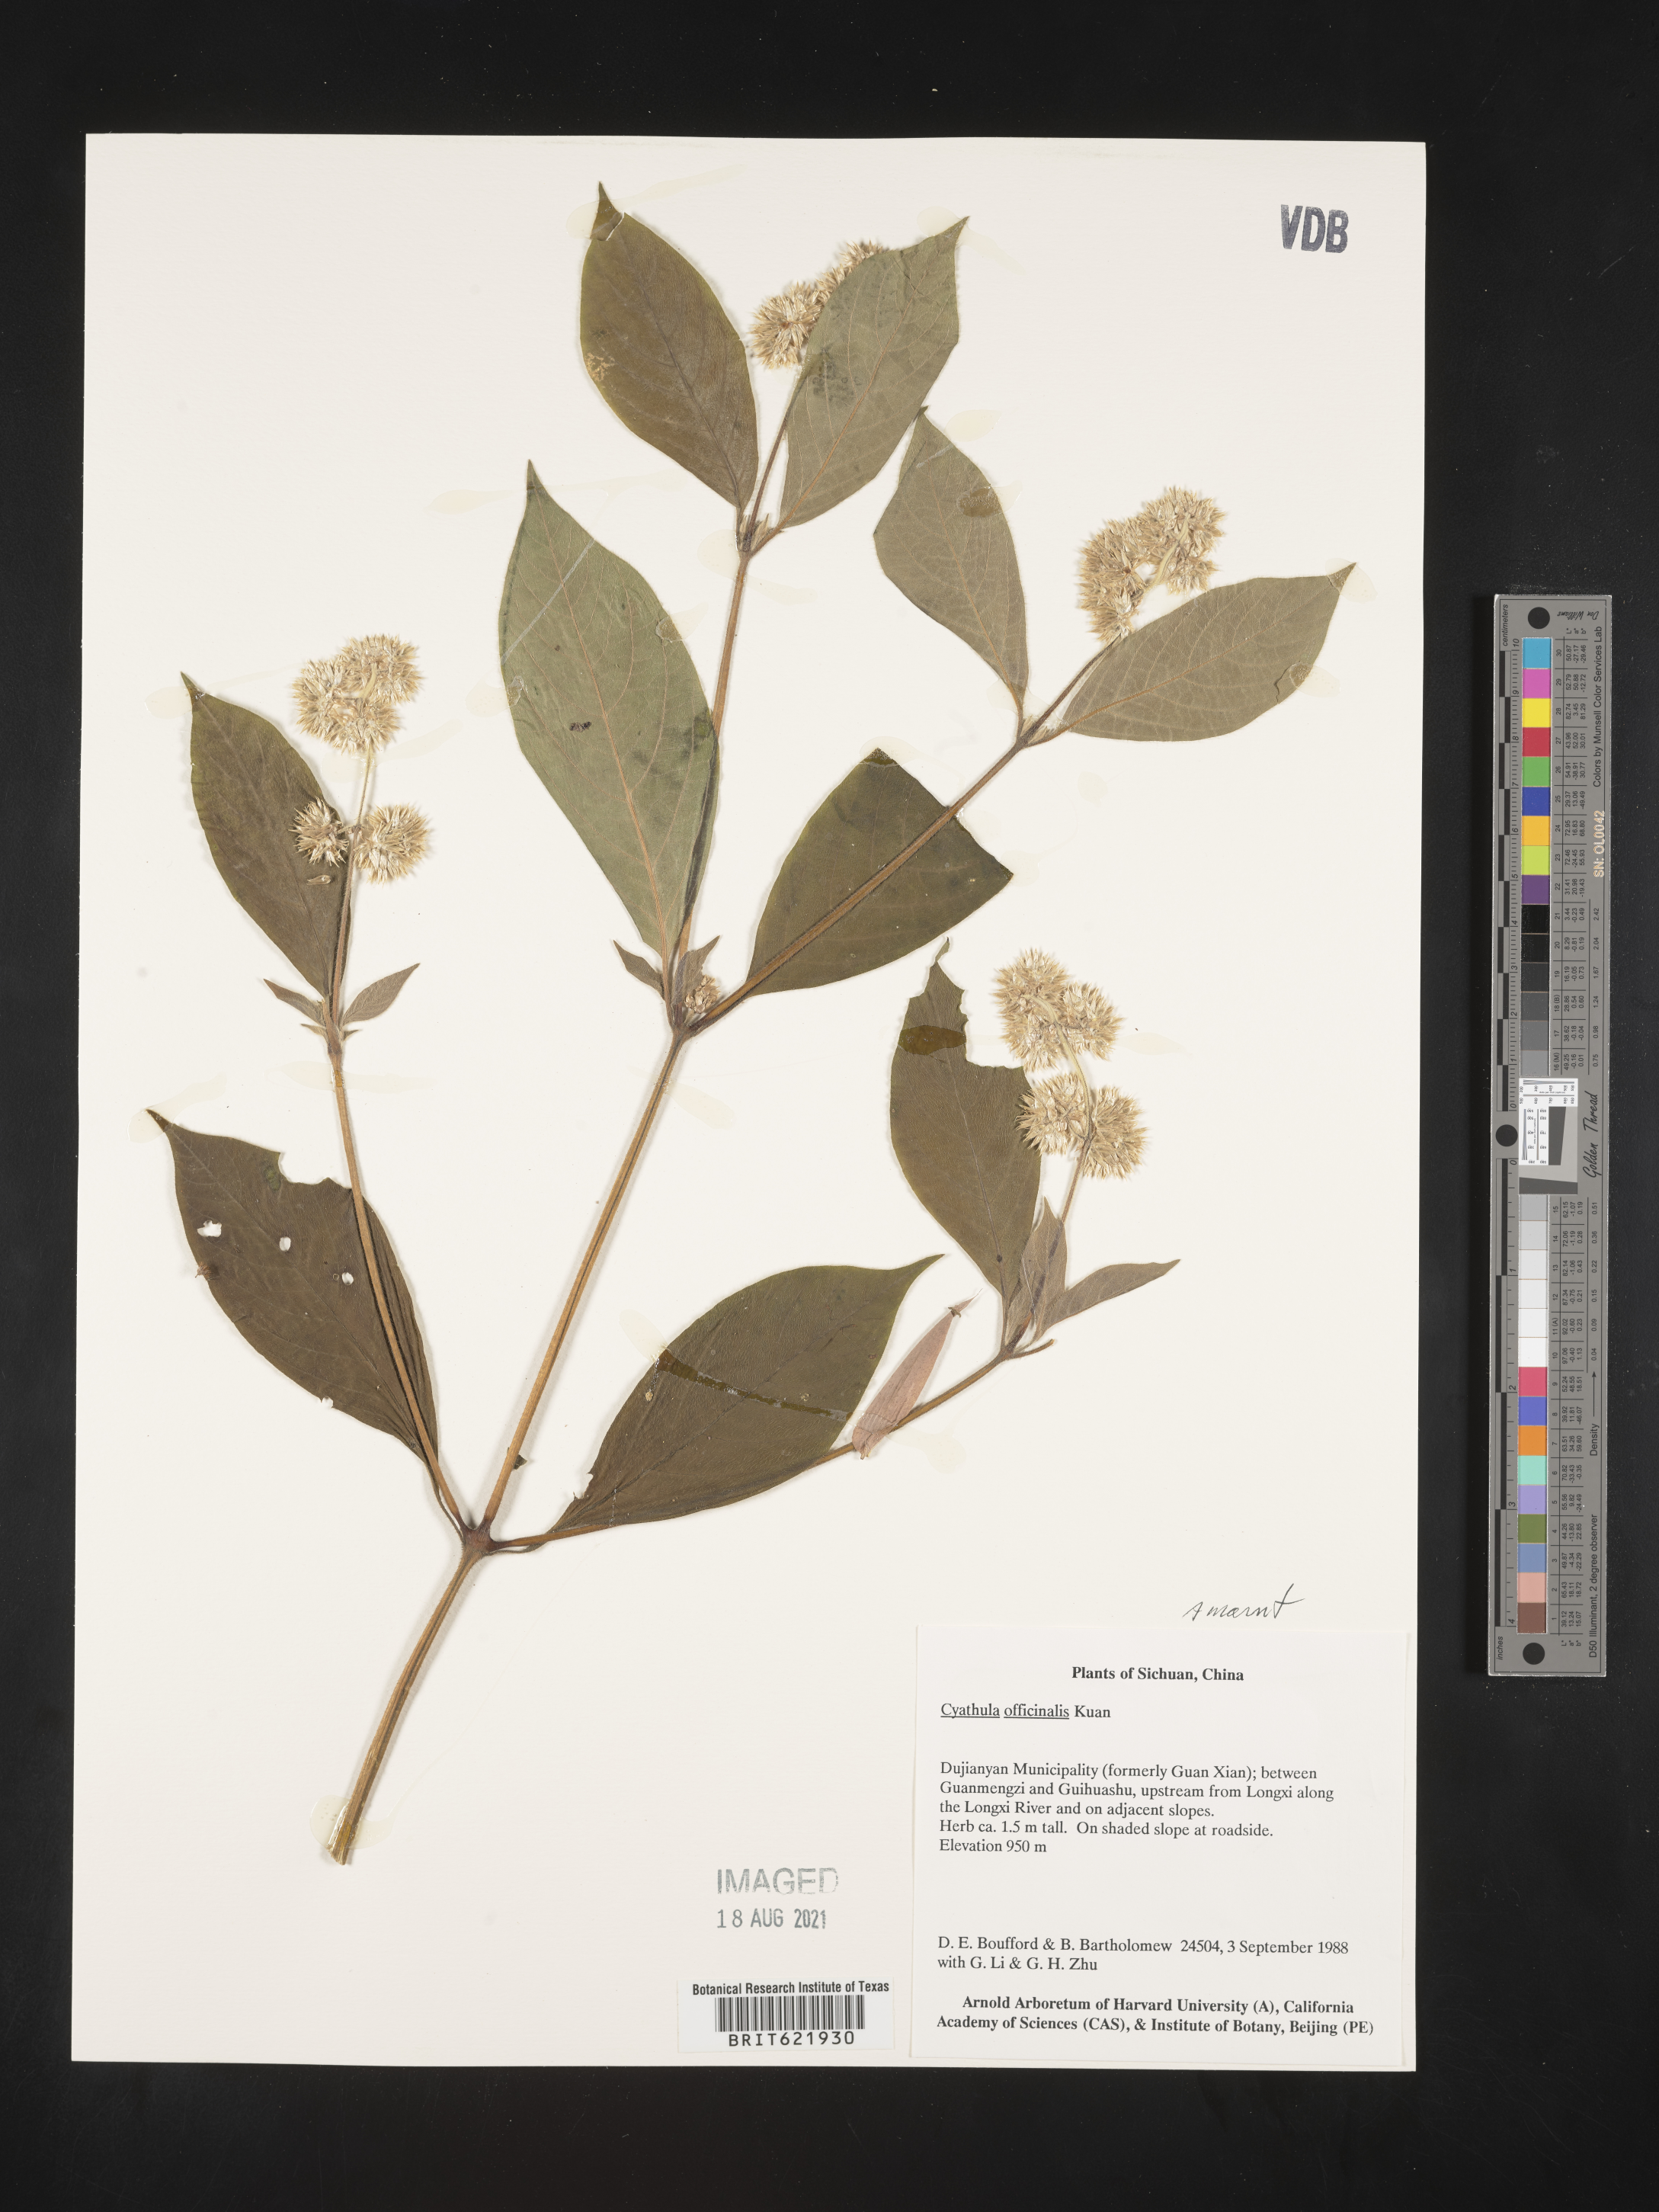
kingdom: Plantae
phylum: Tracheophyta
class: Magnoliopsida
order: Caryophyllales
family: Amaranthaceae
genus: Cyathula
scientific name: Cyathula officinalis
